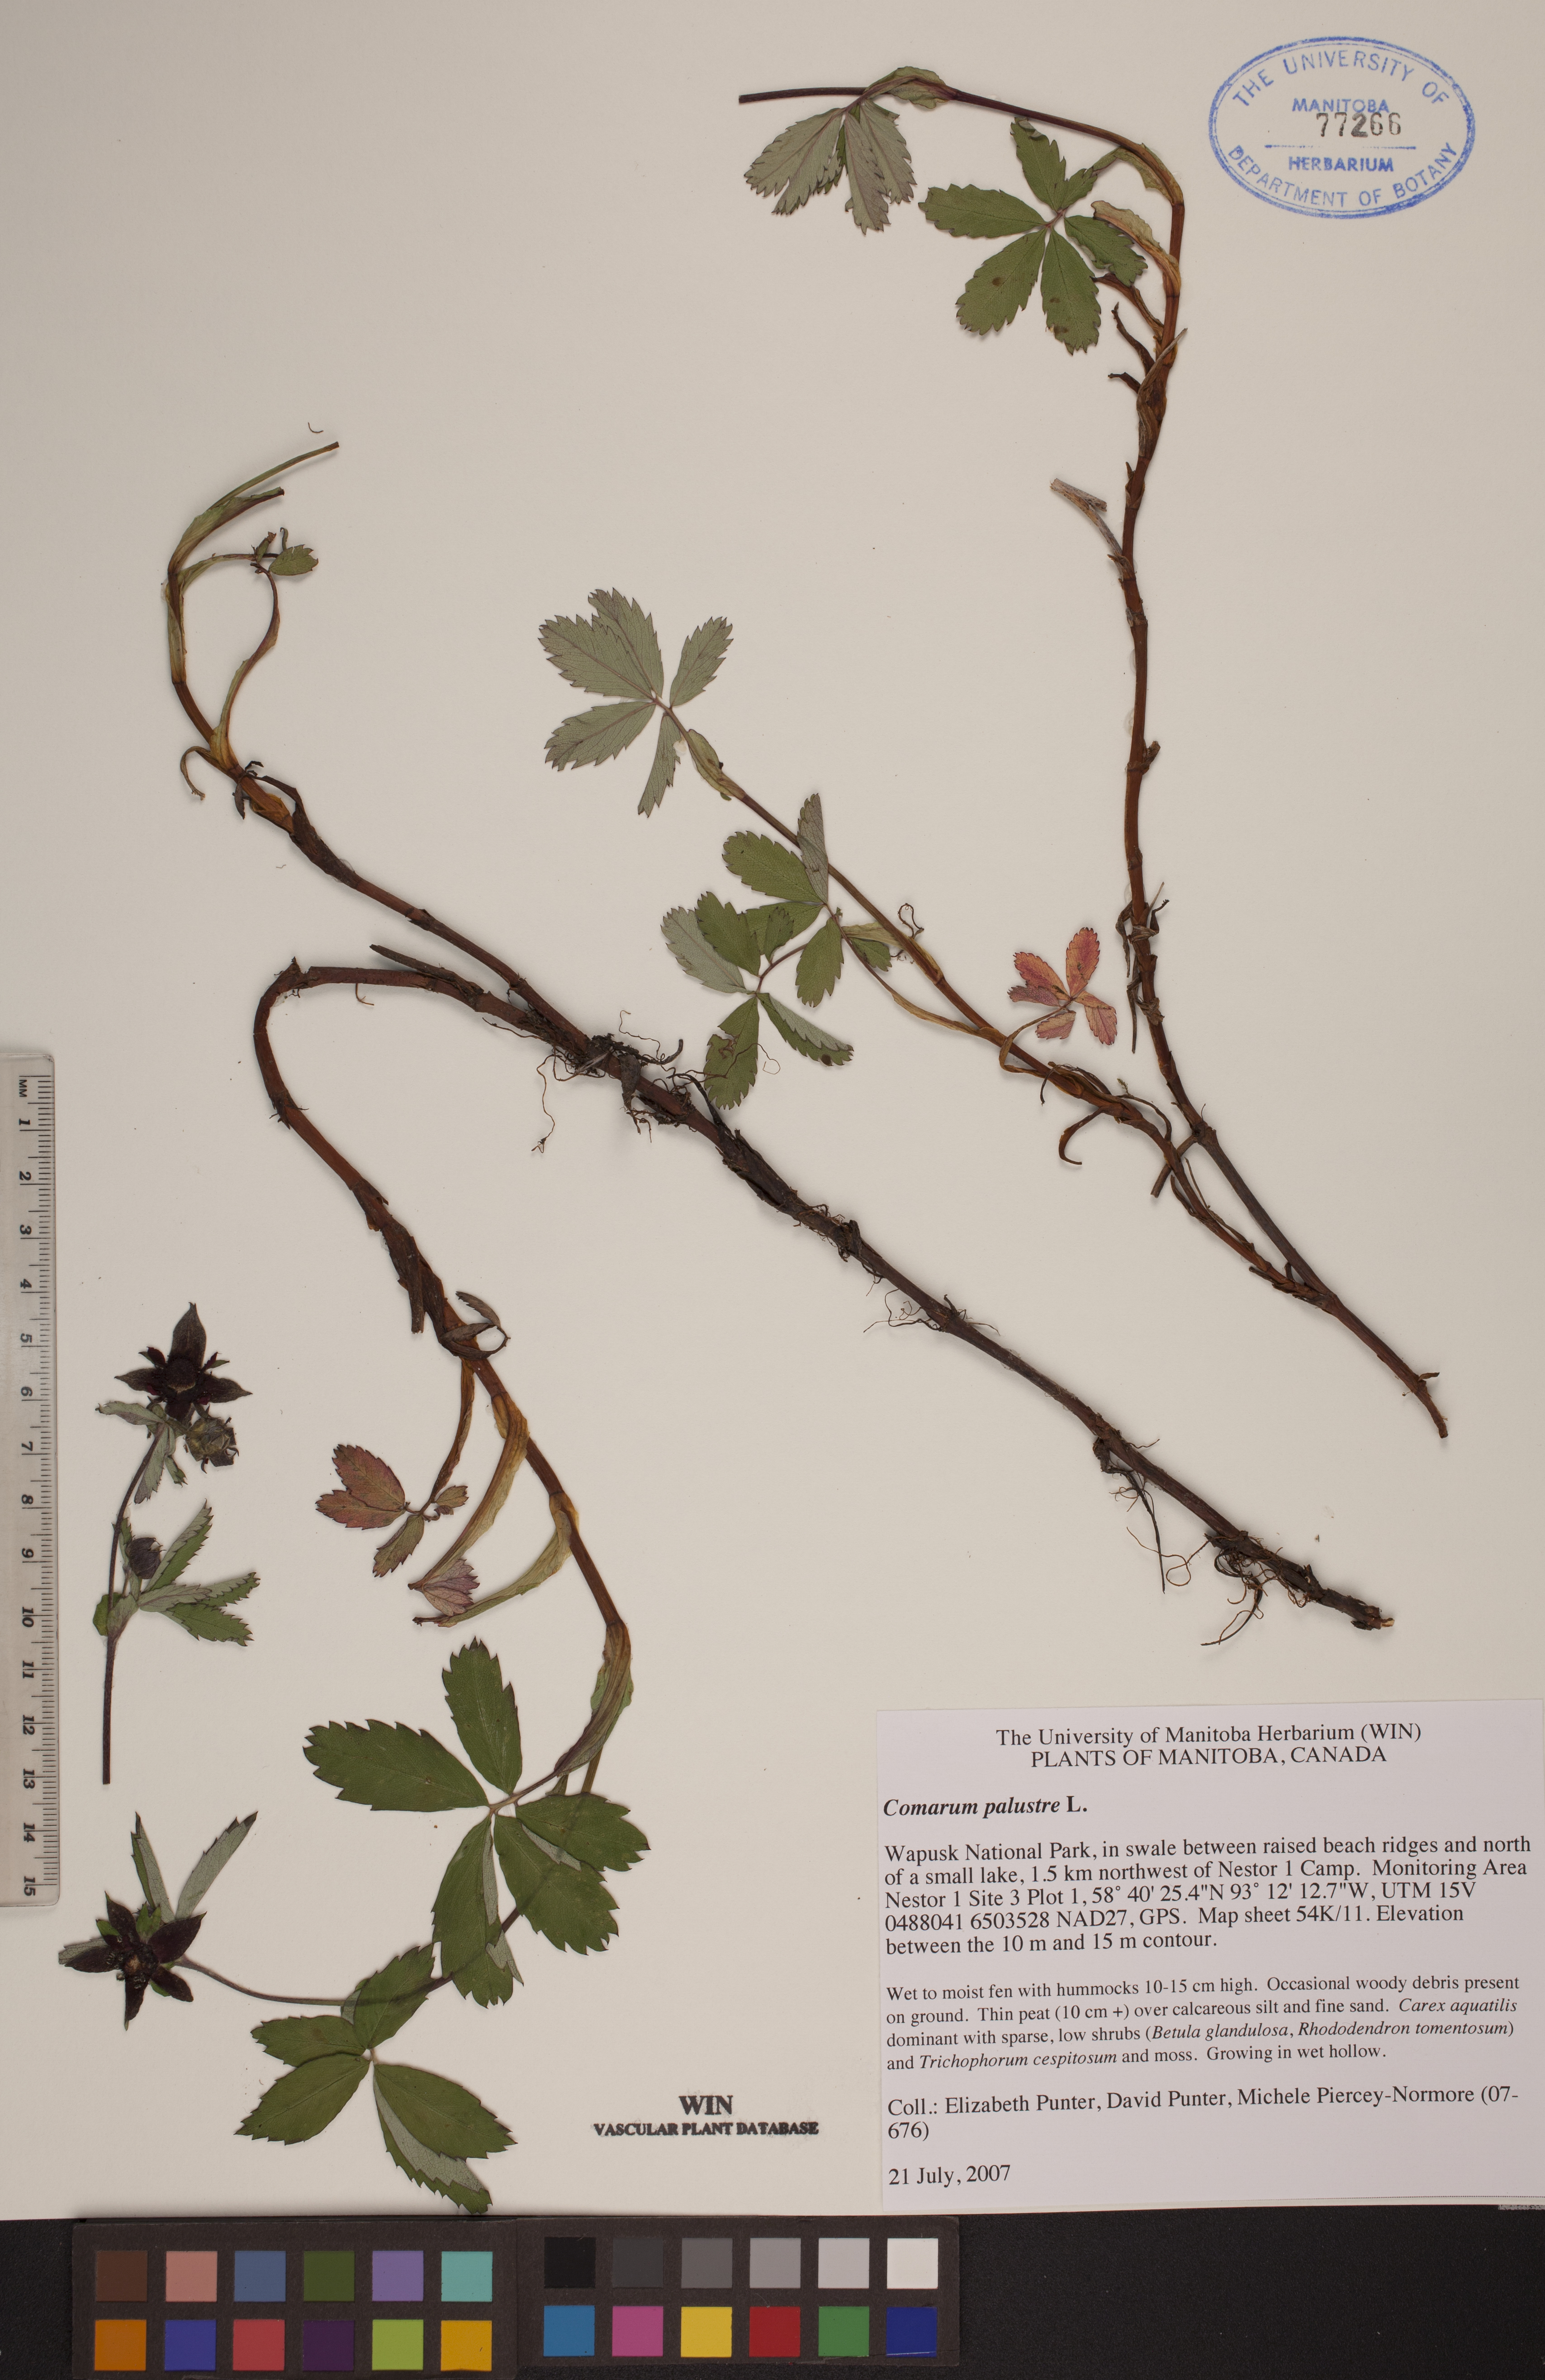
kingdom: Plantae
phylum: Tracheophyta
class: Magnoliopsida
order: Rosales
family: Rosaceae
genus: Comarum
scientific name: Comarum palustre
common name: Marsh cinquefoil
